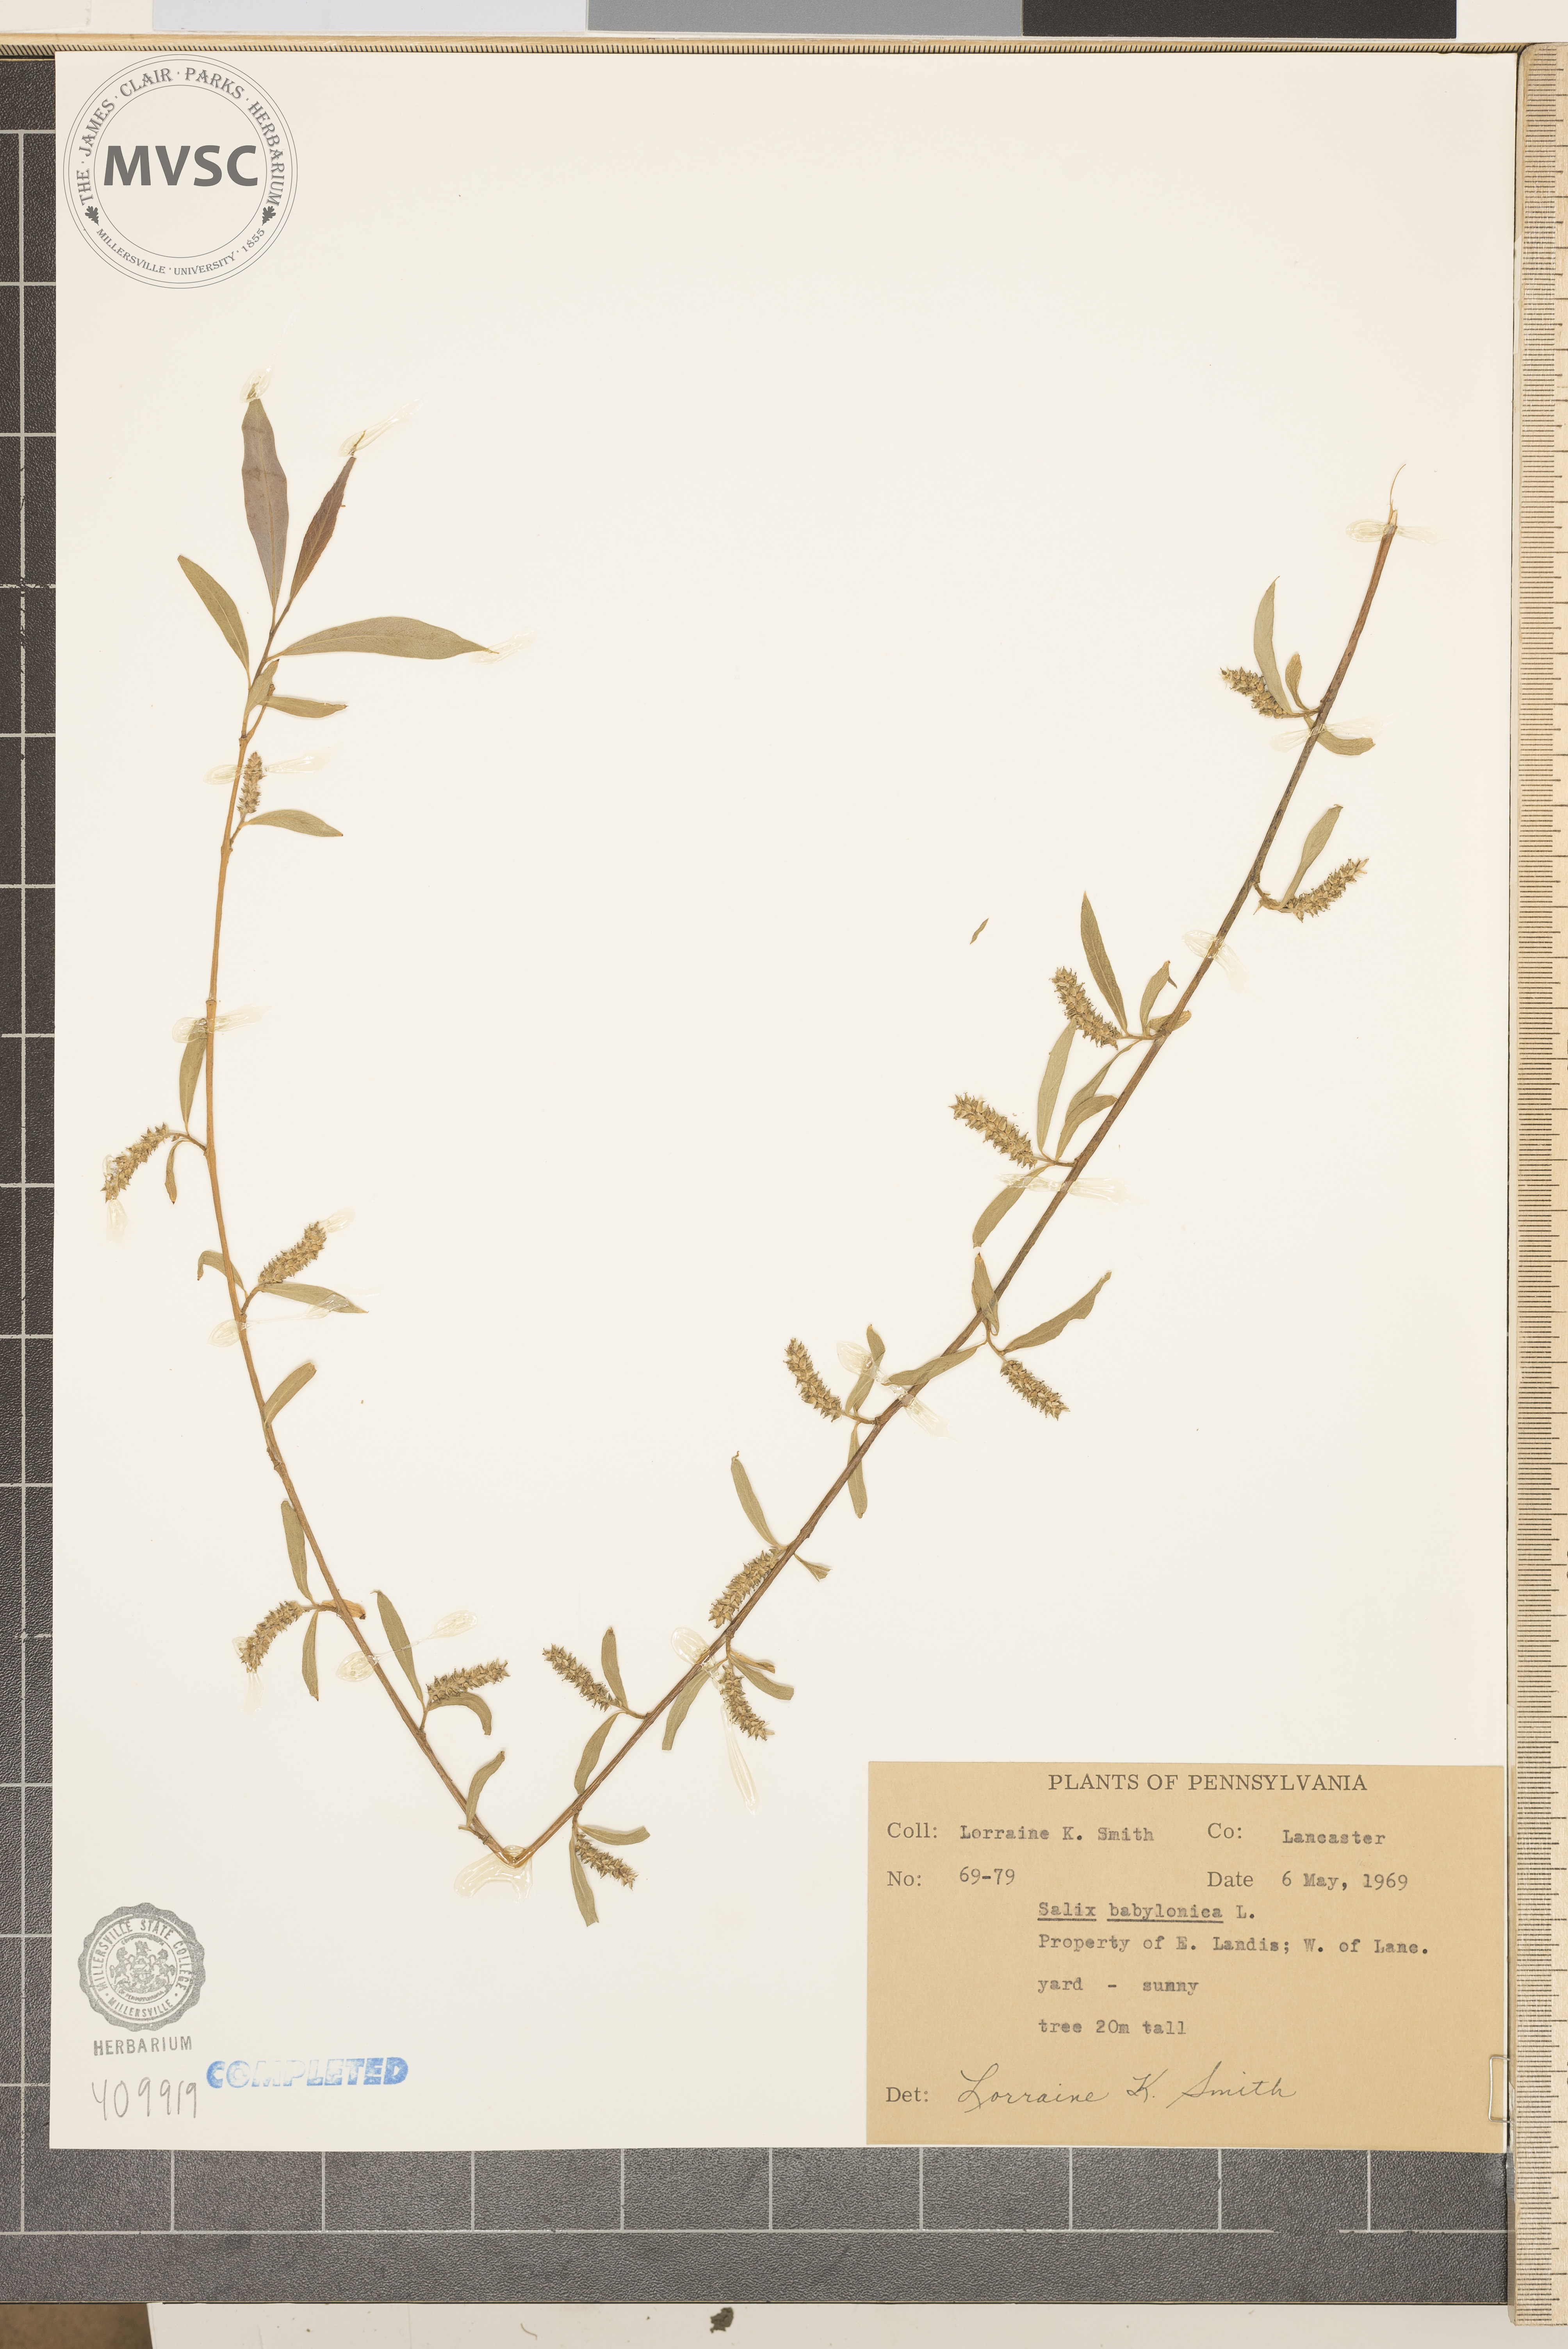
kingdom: Plantae
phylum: Tracheophyta
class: Magnoliopsida
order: Malpighiales
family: Salicaceae
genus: Salix
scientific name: Salix babylonica
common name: Weeping willow
